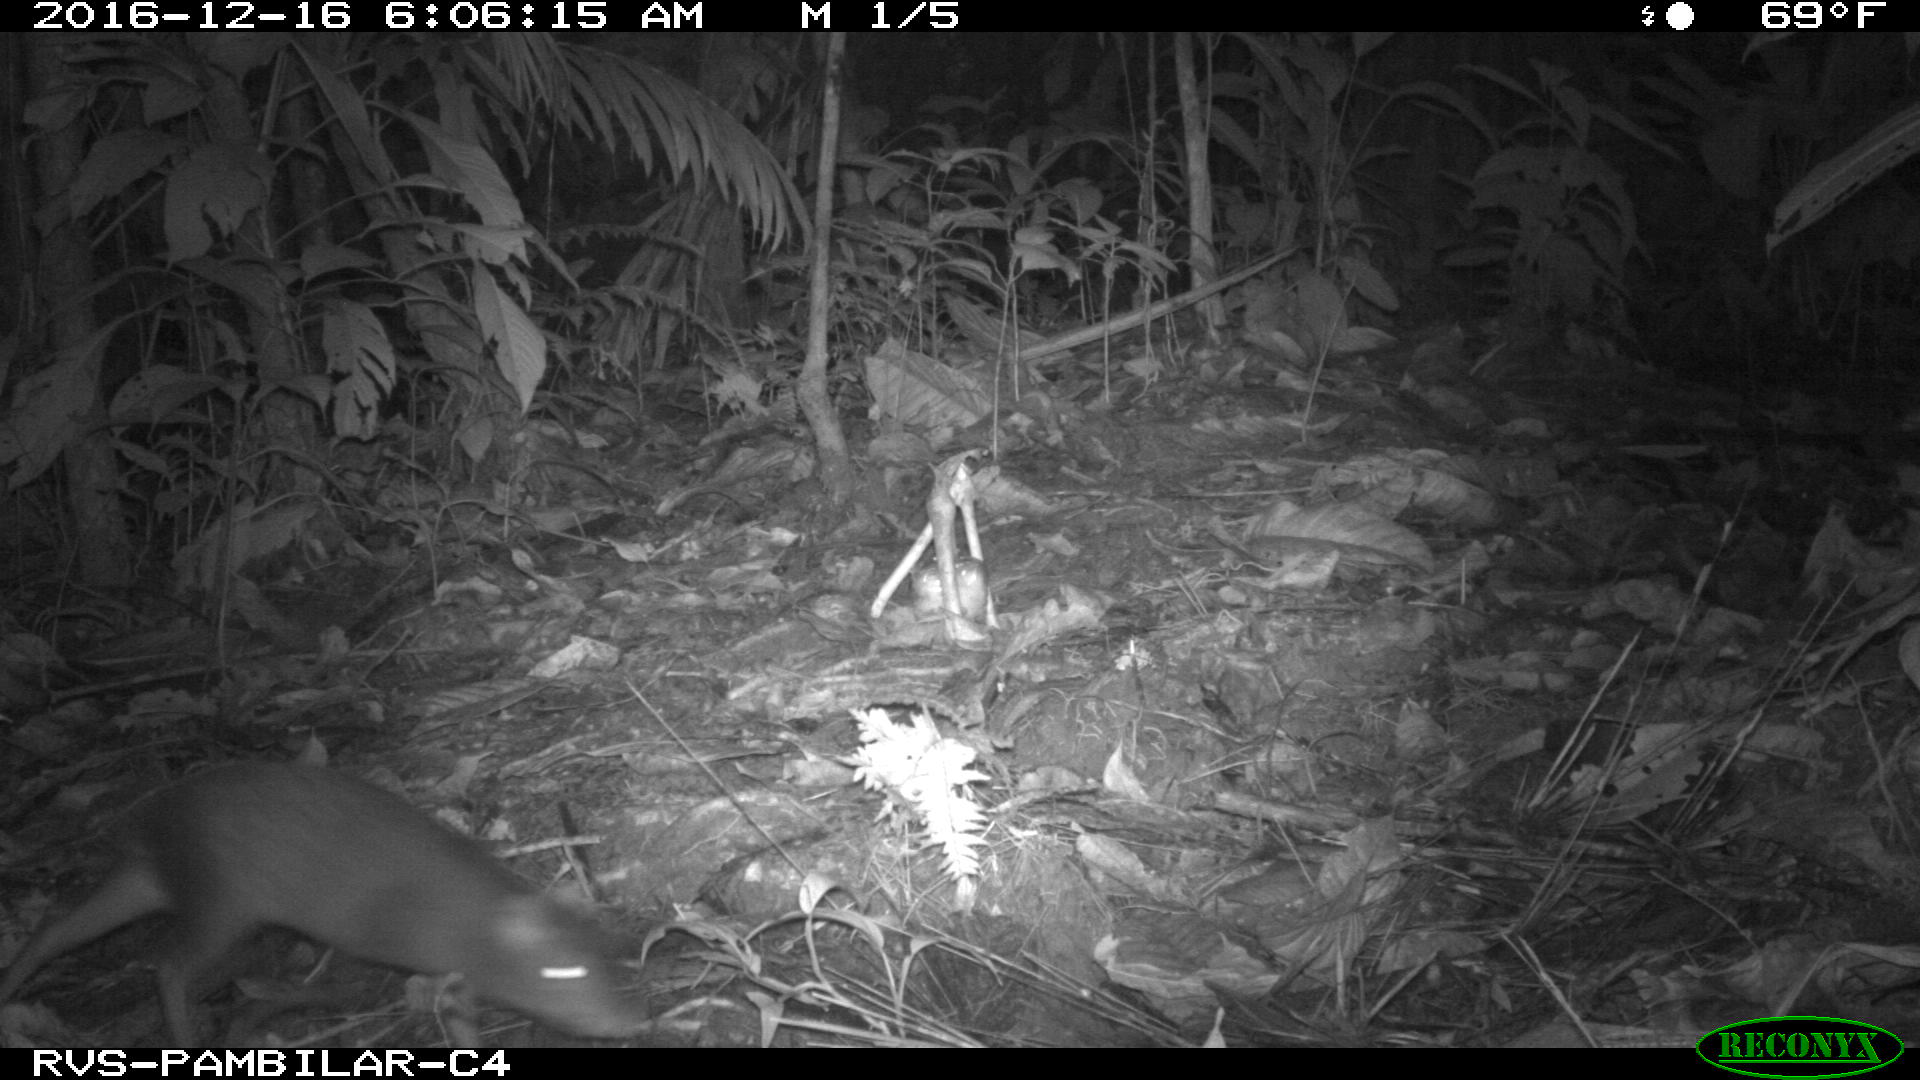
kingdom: Animalia
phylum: Chordata
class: Mammalia
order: Rodentia
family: Dasyproctidae
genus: Dasyprocta
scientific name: Dasyprocta punctata
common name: Central american agouti
